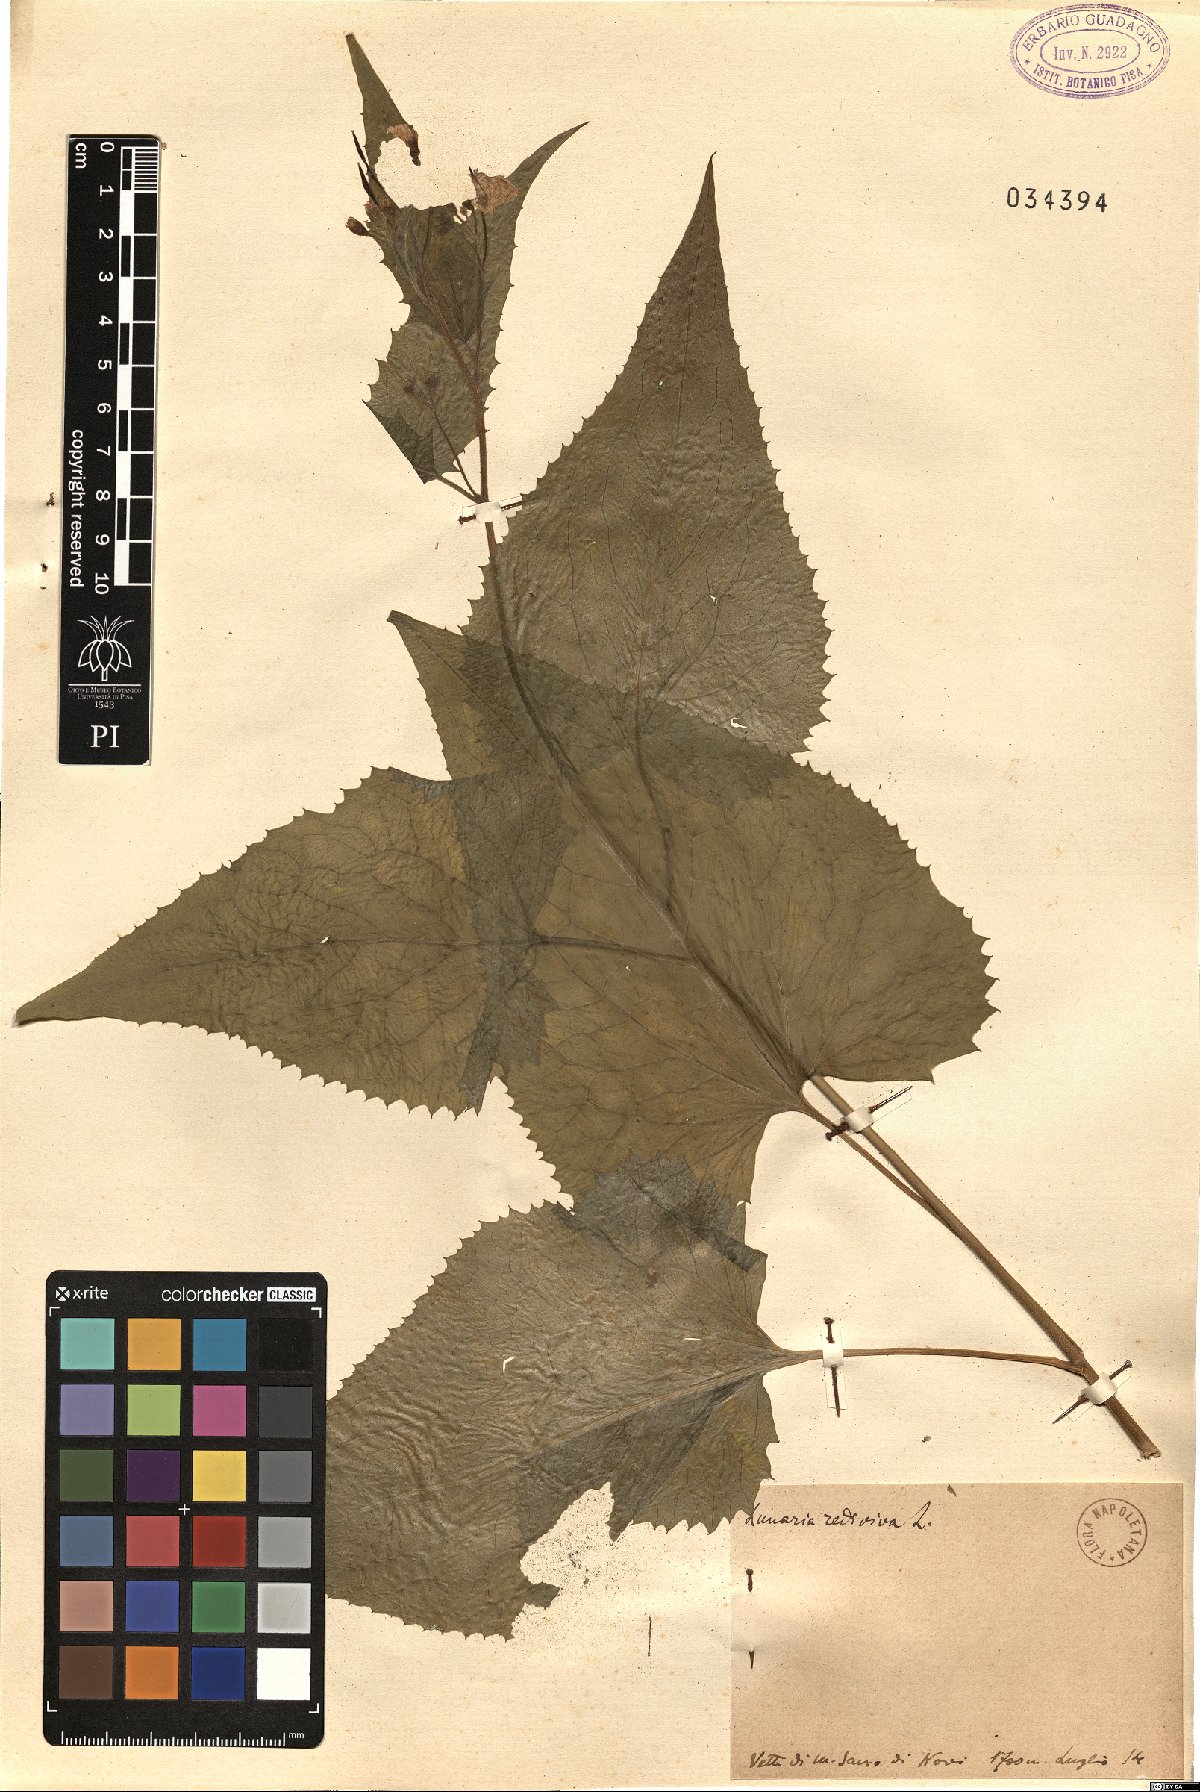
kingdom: Plantae
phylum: Tracheophyta
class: Magnoliopsida
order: Brassicales
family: Brassicaceae
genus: Lunaria
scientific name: Lunaria rediviva
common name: Perennial honesty
